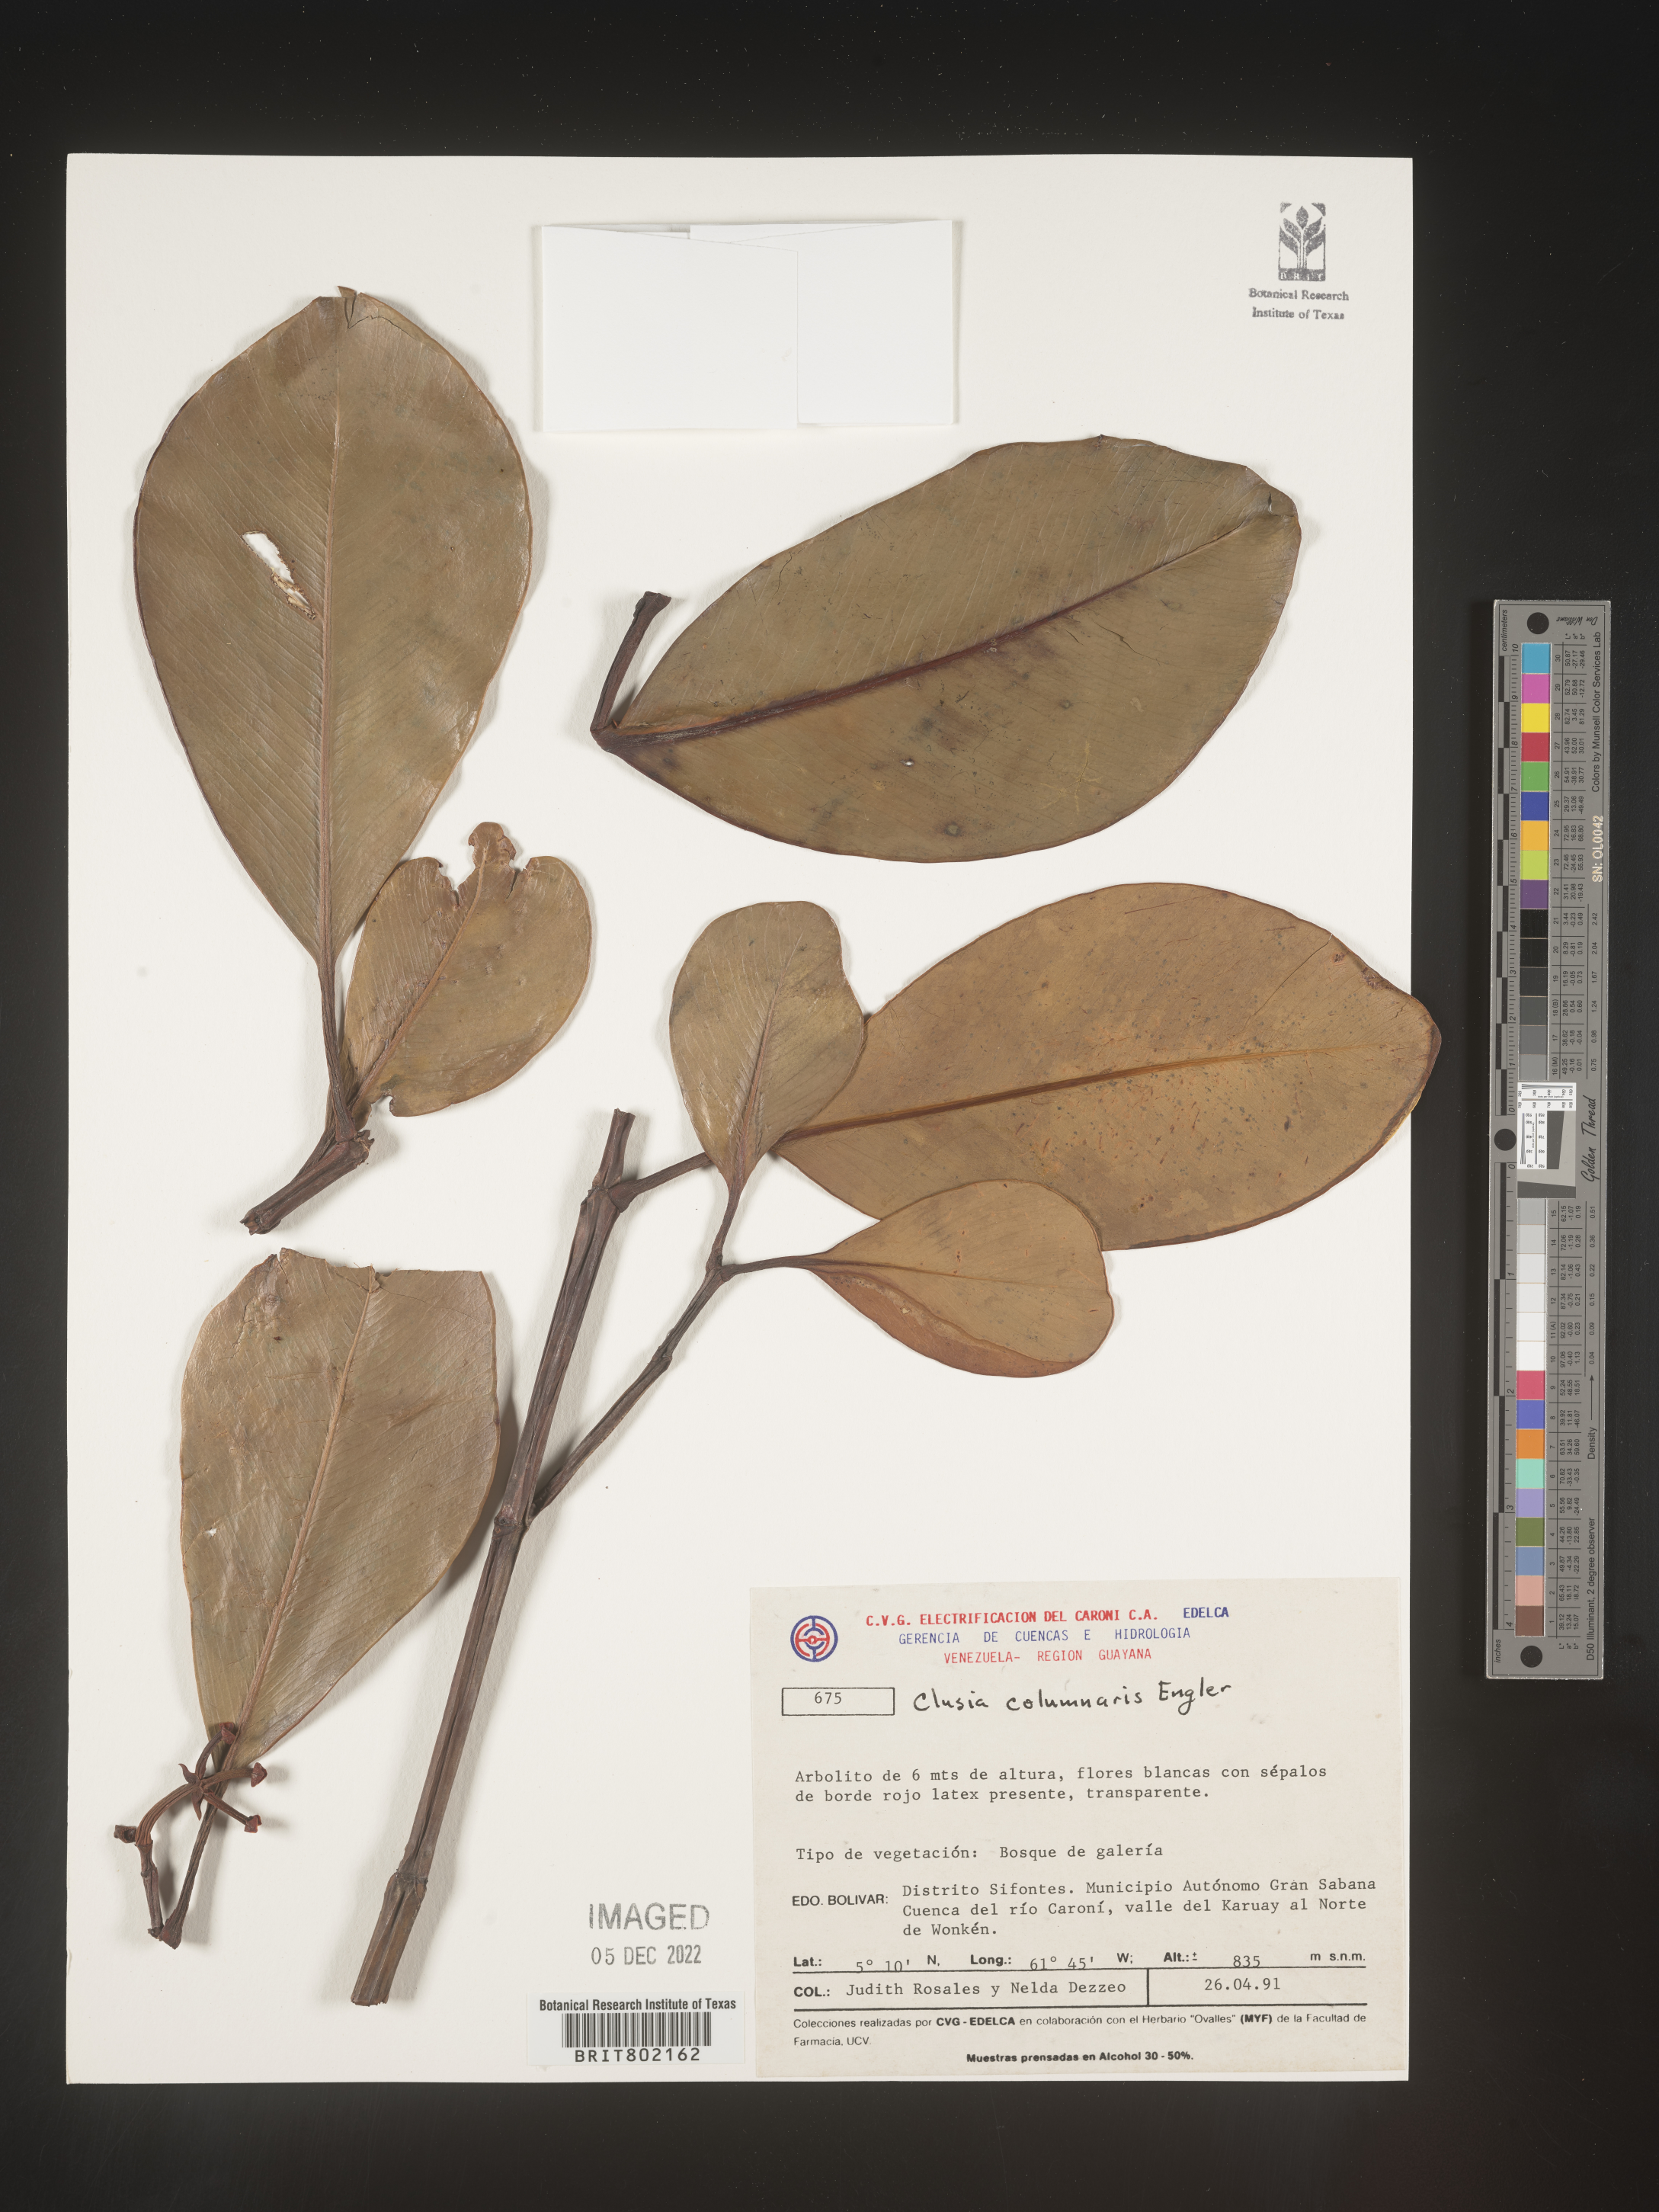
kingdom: Plantae
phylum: Tracheophyta
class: Magnoliopsida
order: Malpighiales
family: Clusiaceae
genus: Clusia
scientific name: Clusia columnaris
